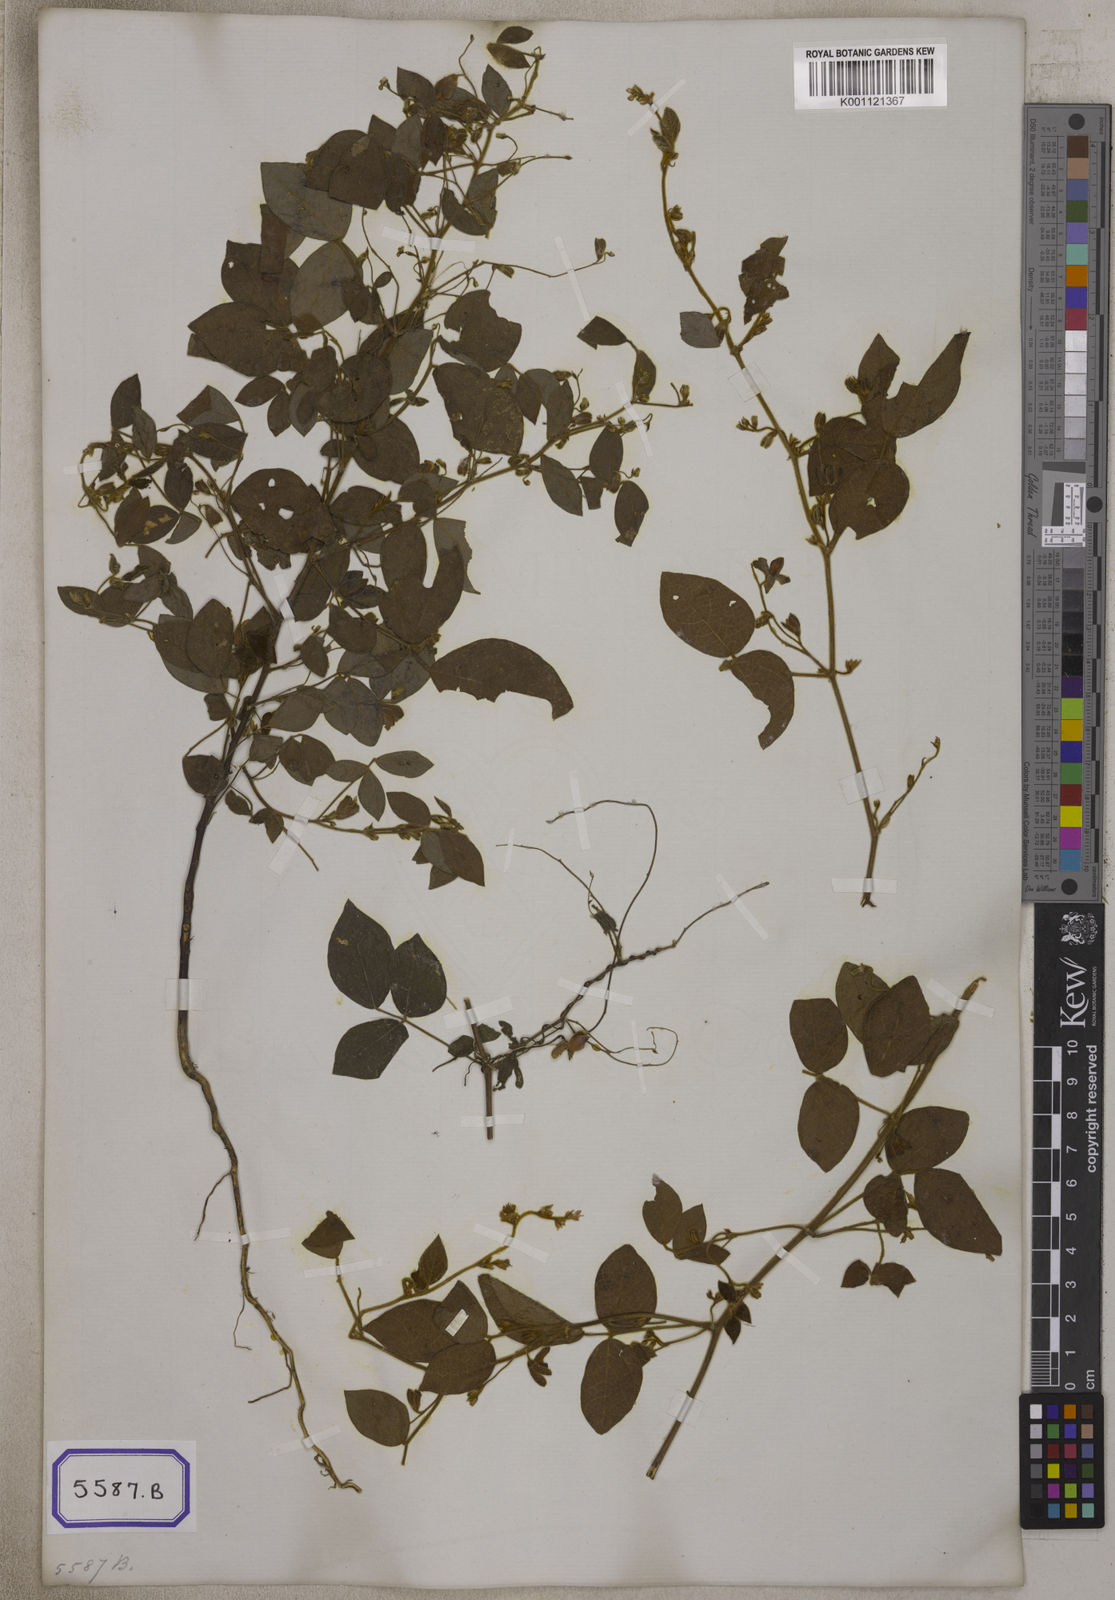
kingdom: Plantae
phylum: Tracheophyta
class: Magnoliopsida
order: Fabales
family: Fabaceae
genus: Rhynchosia
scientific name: Rhynchosia rufescens
